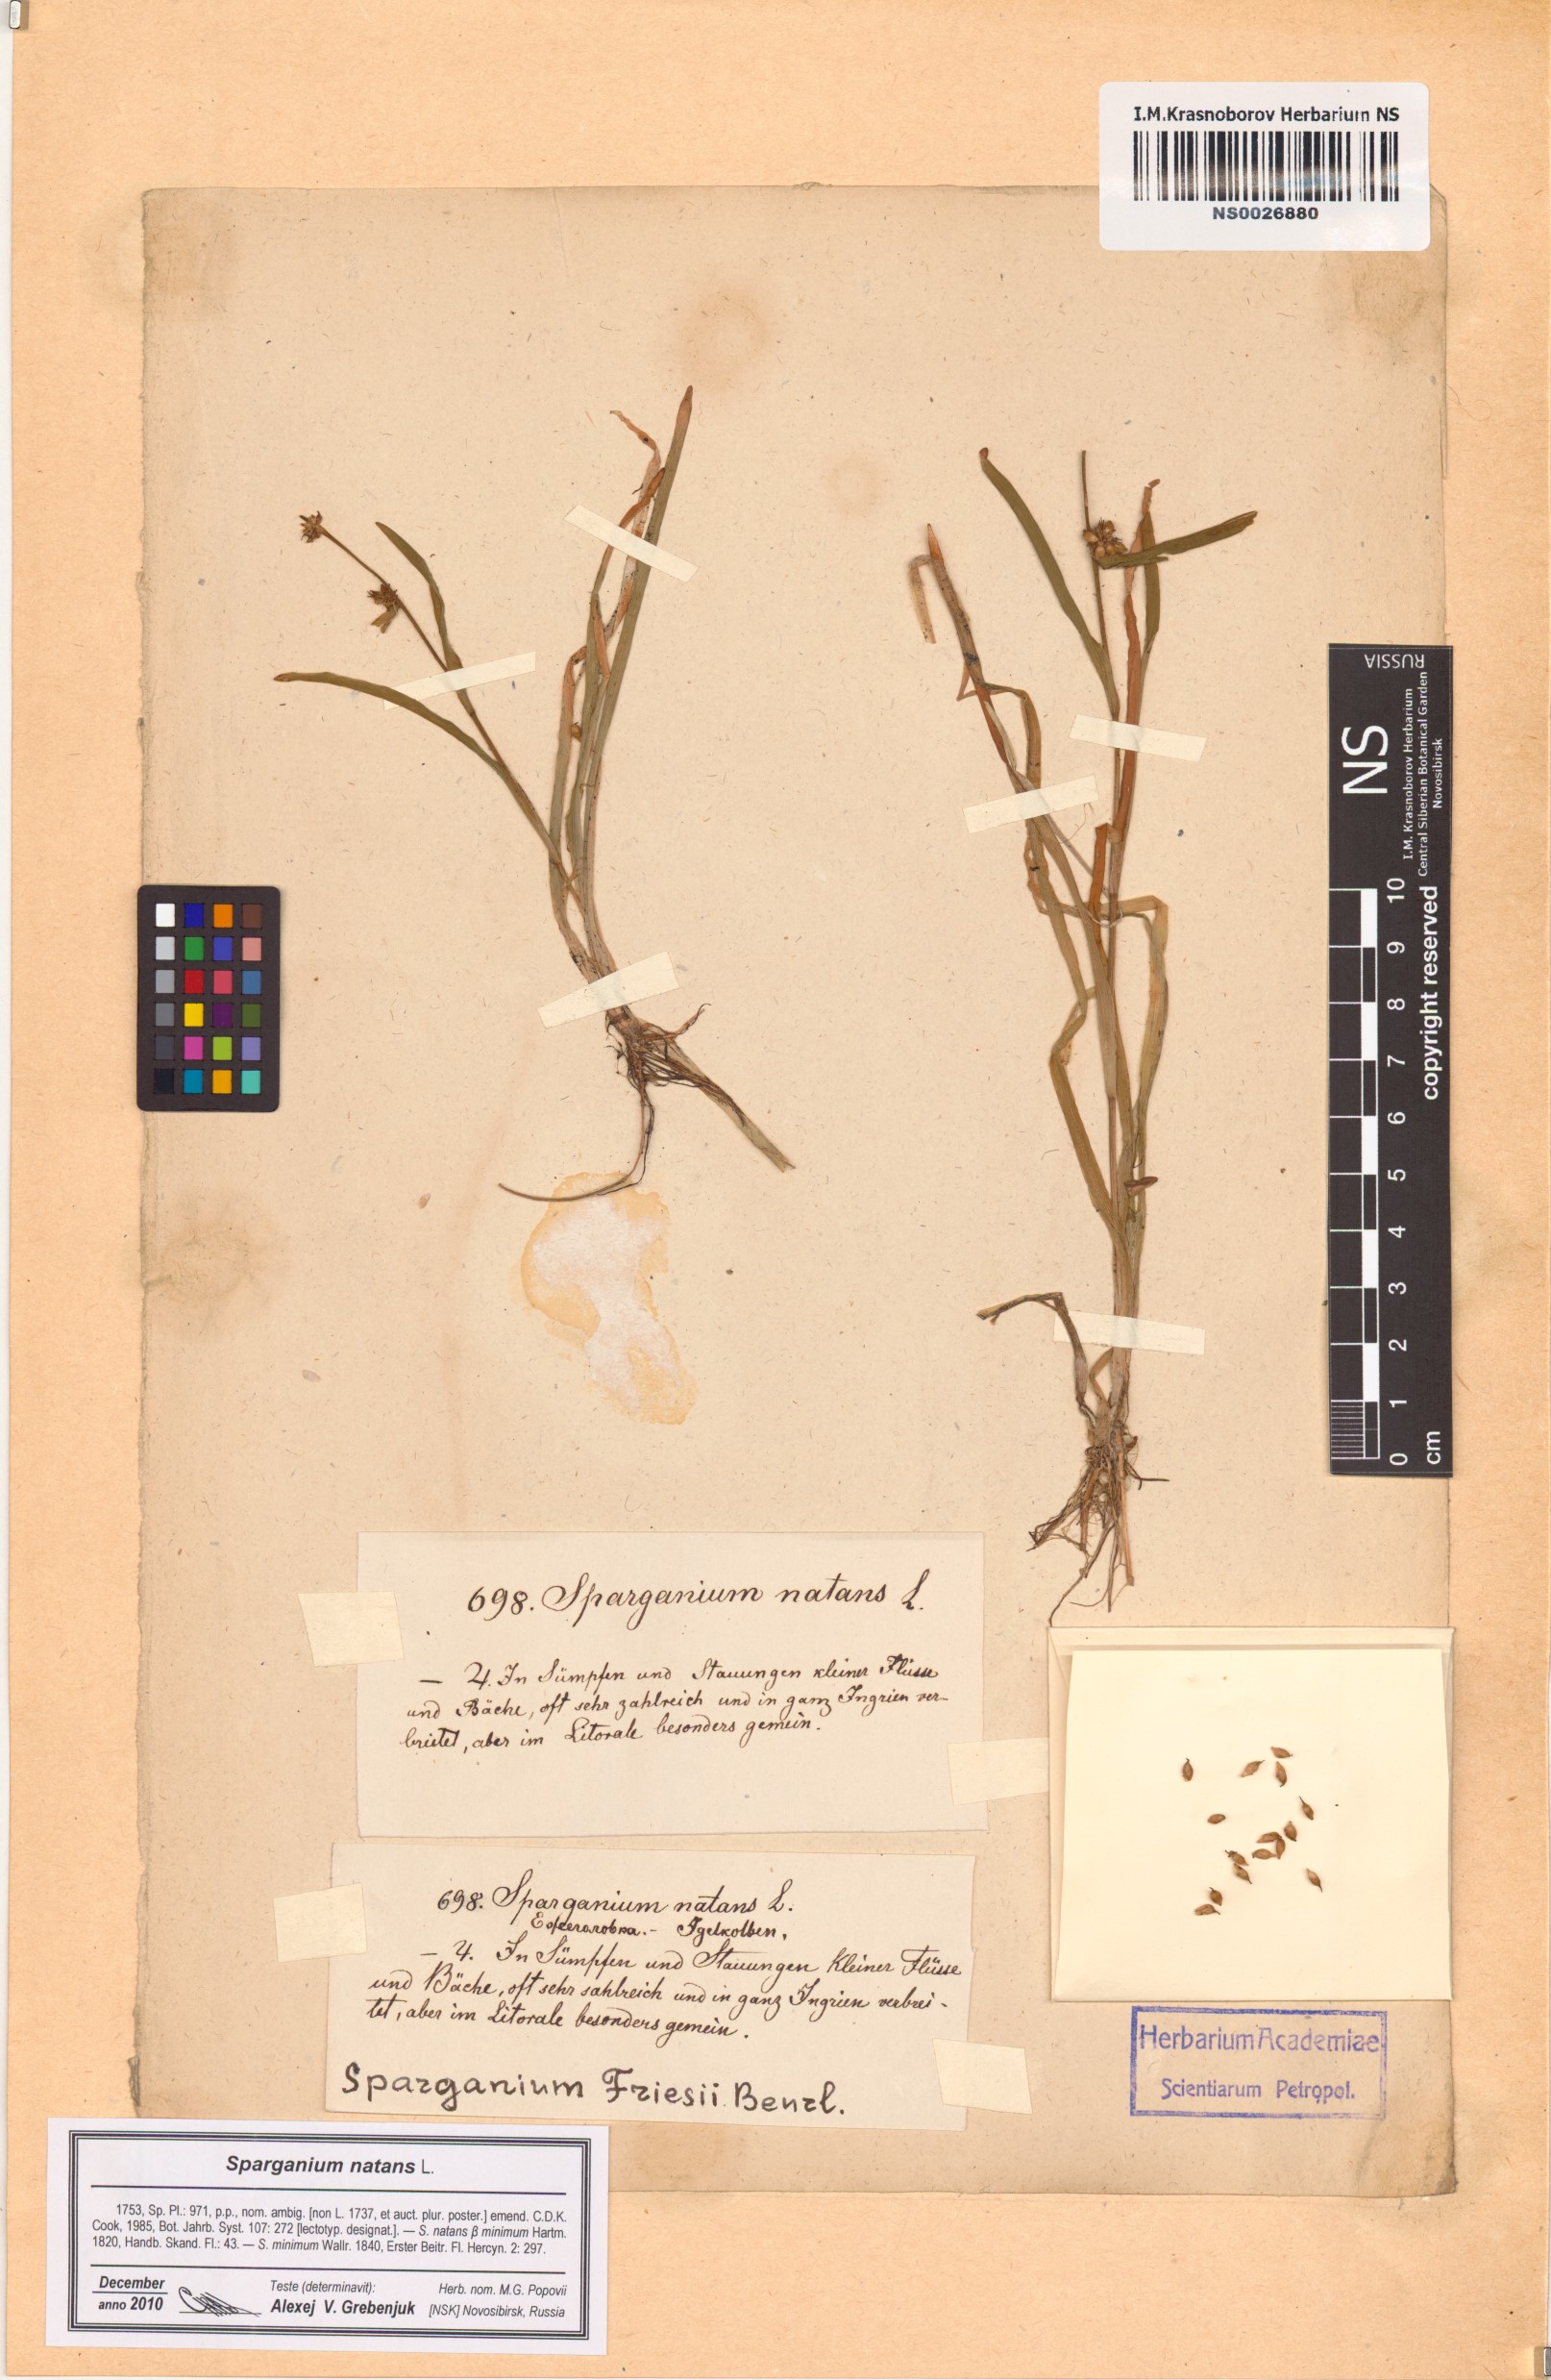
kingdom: Plantae
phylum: Tracheophyta
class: Liliopsida
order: Poales
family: Typhaceae
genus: Sparganium
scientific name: Sparganium natans
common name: Least bur-reed
